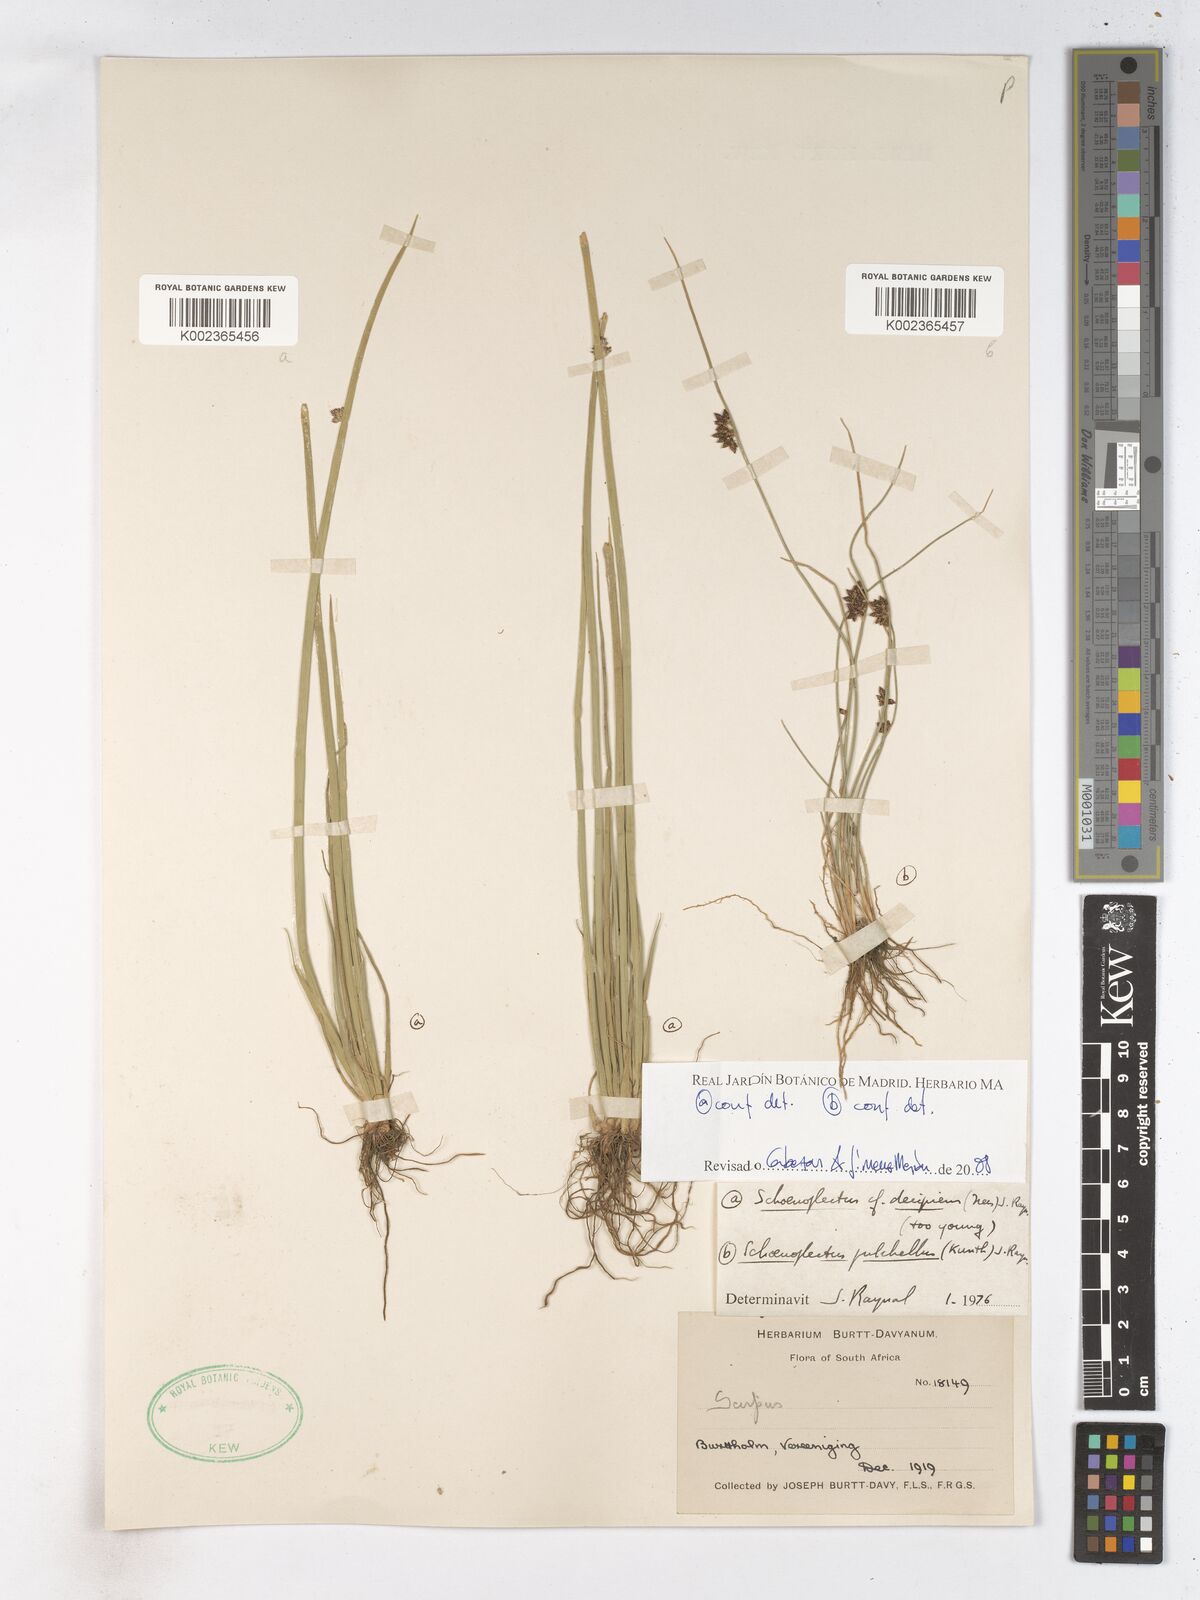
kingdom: Plantae
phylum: Tracheophyta
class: Liliopsida
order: Poales
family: Cyperaceae
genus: Schoenoplectiella
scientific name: Schoenoplectiella paludicola
